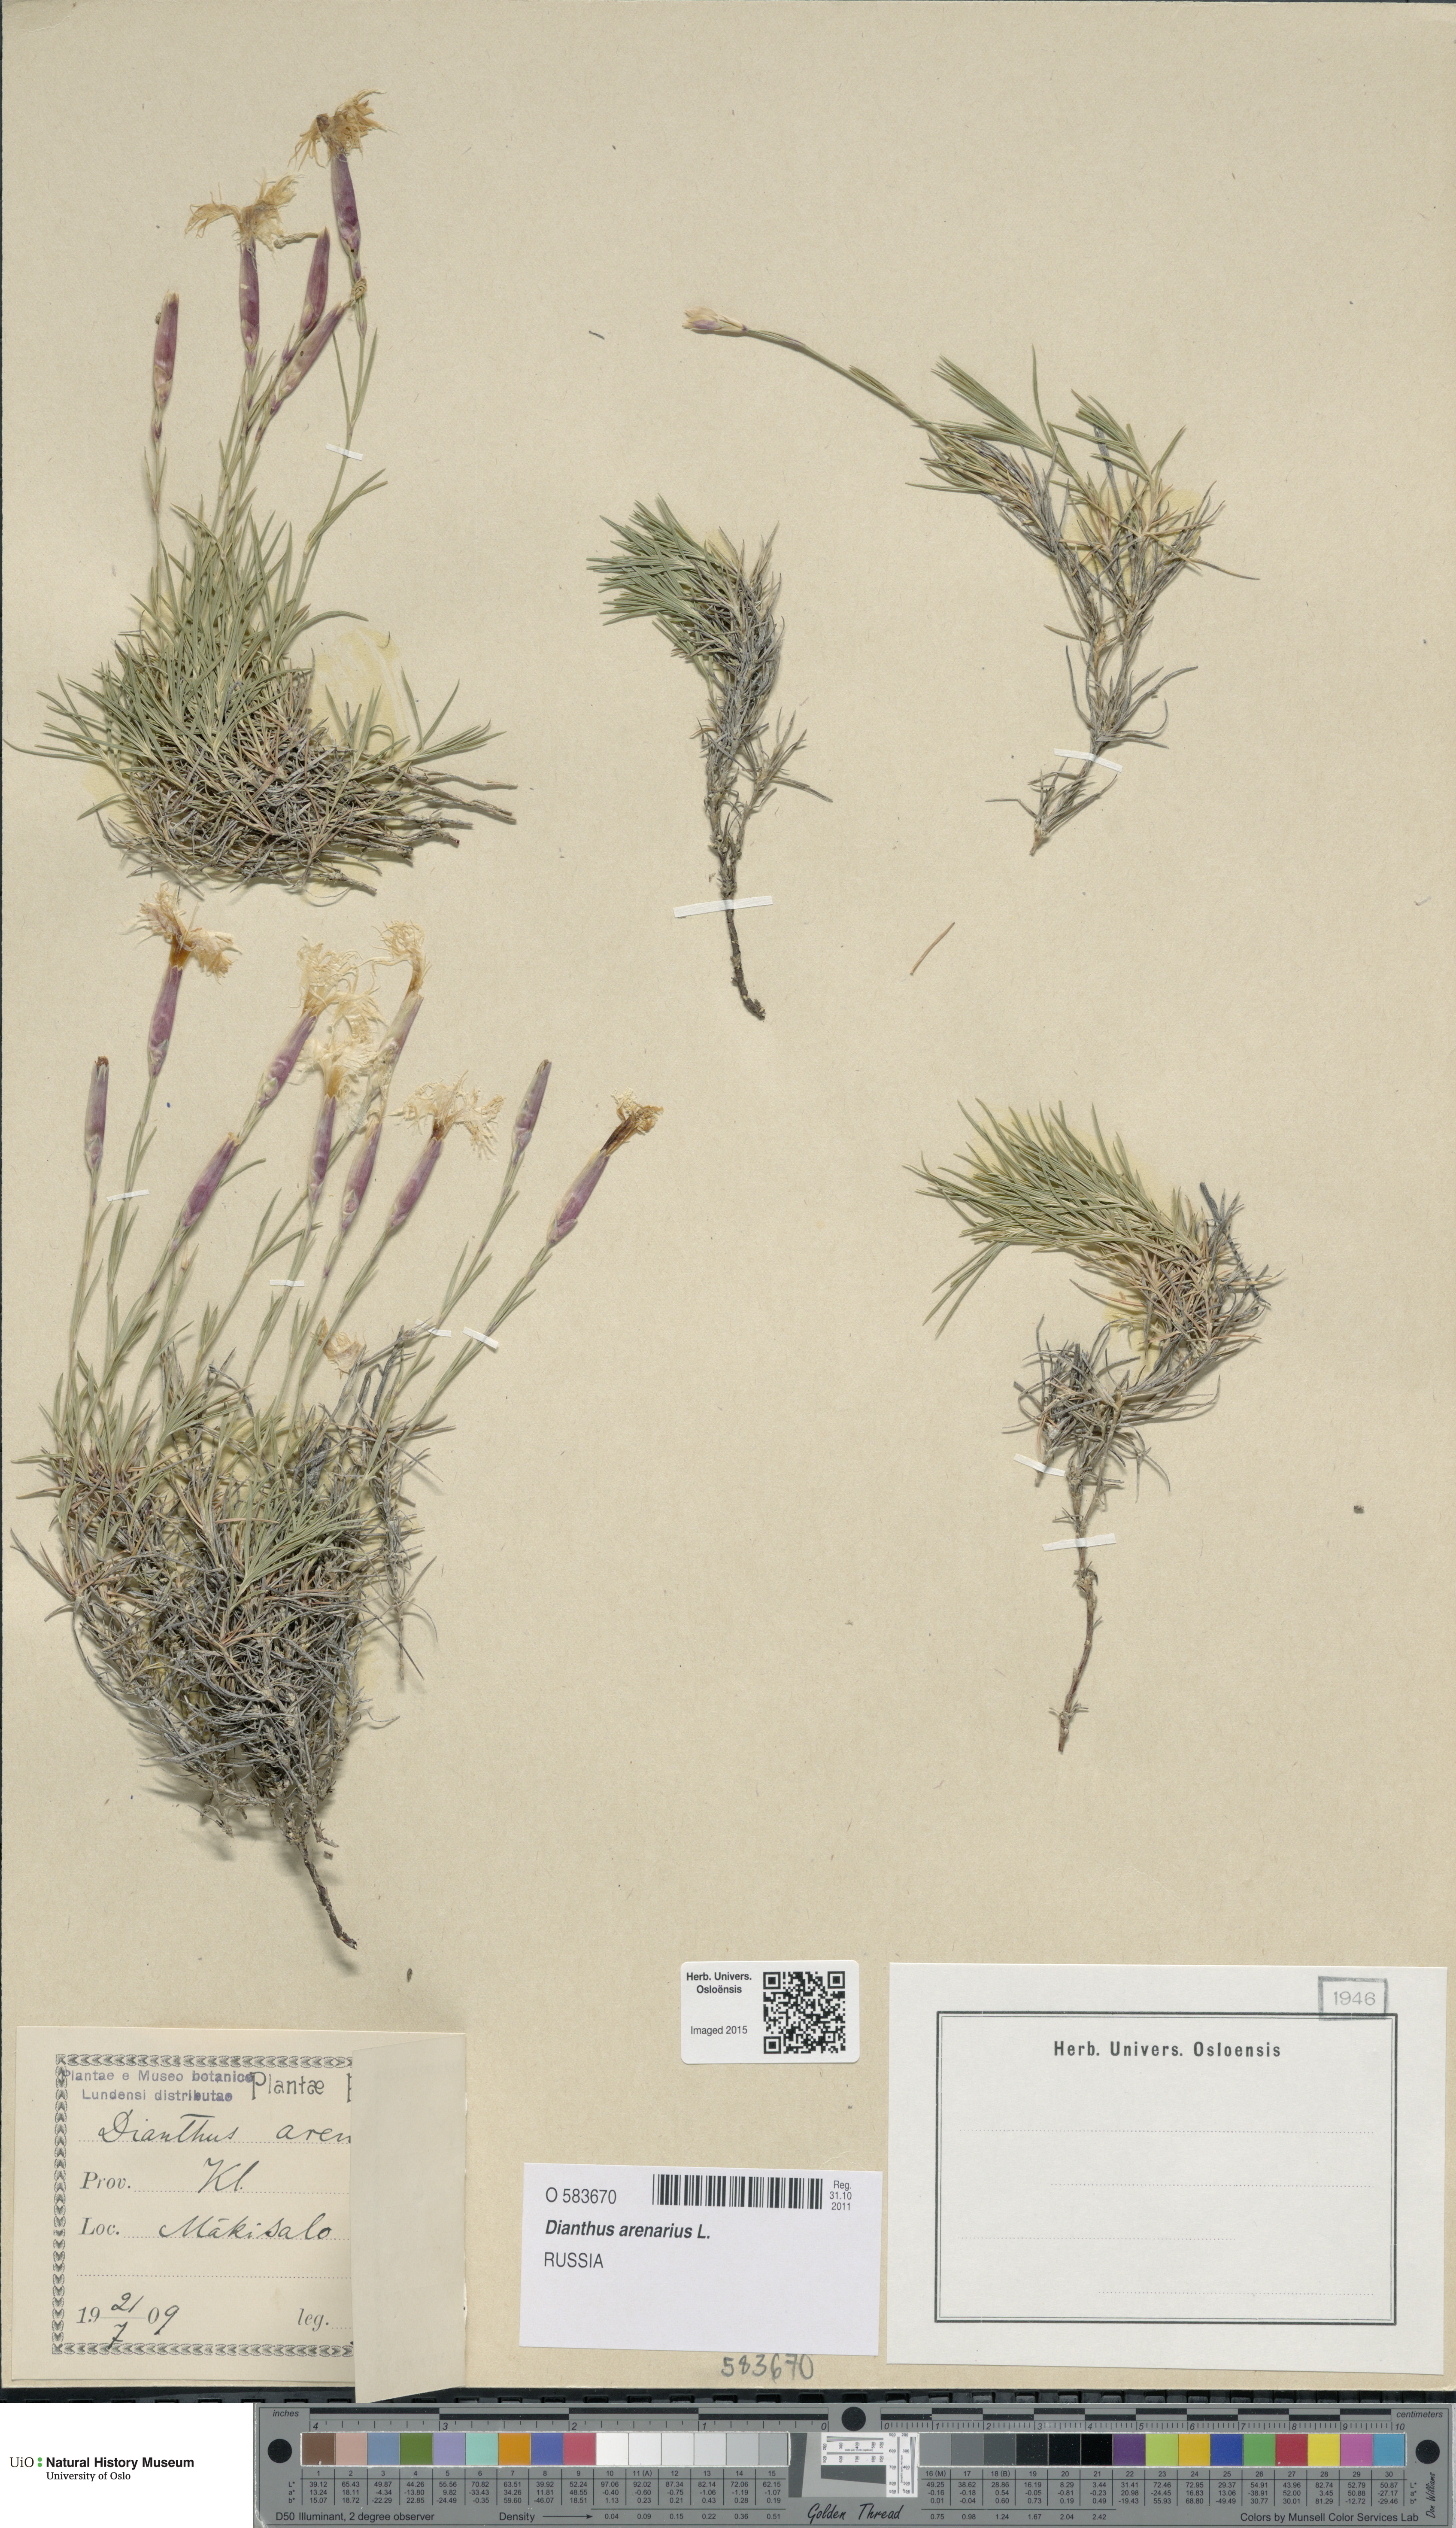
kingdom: Plantae
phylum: Tracheophyta
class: Magnoliopsida
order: Caryophyllales
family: Caryophyllaceae
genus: Dianthus
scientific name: Dianthus arenarius
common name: Stone pink
